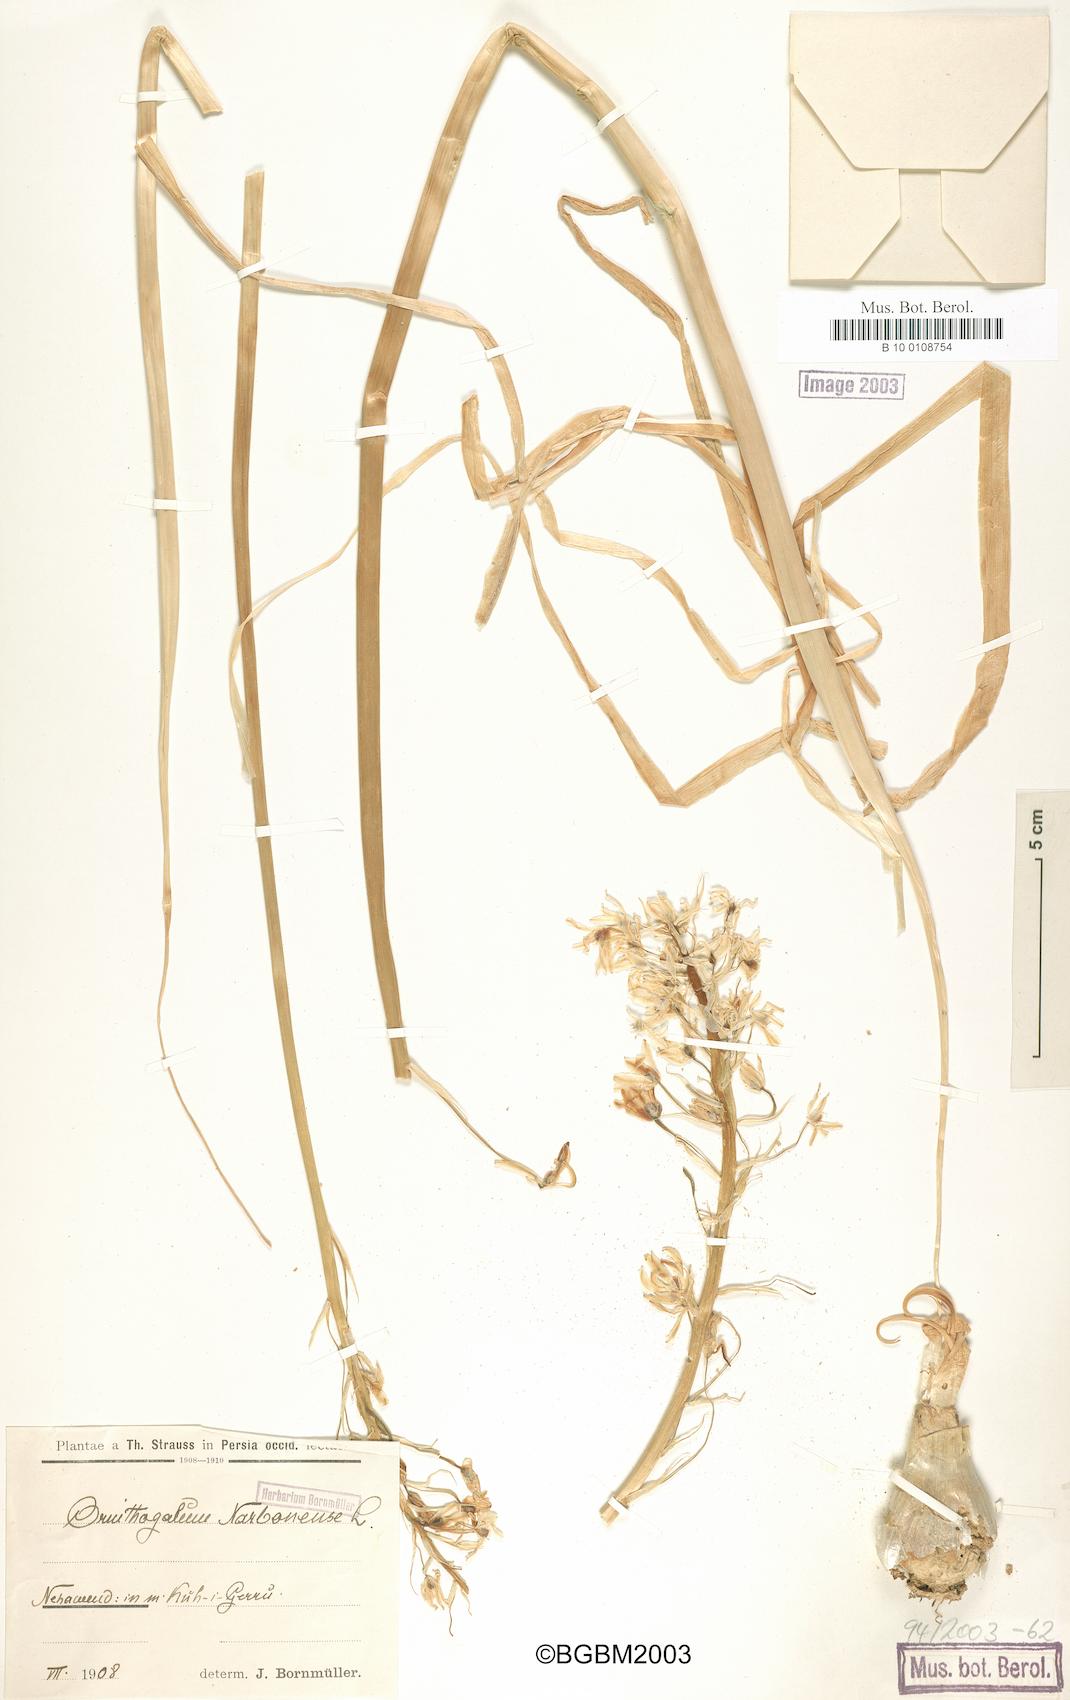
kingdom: Plantae
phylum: Tracheophyta
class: Liliopsida
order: Asparagales
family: Asparagaceae
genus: Ornithogalum
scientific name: Ornithogalum narbonense
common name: Bath-asparagus
